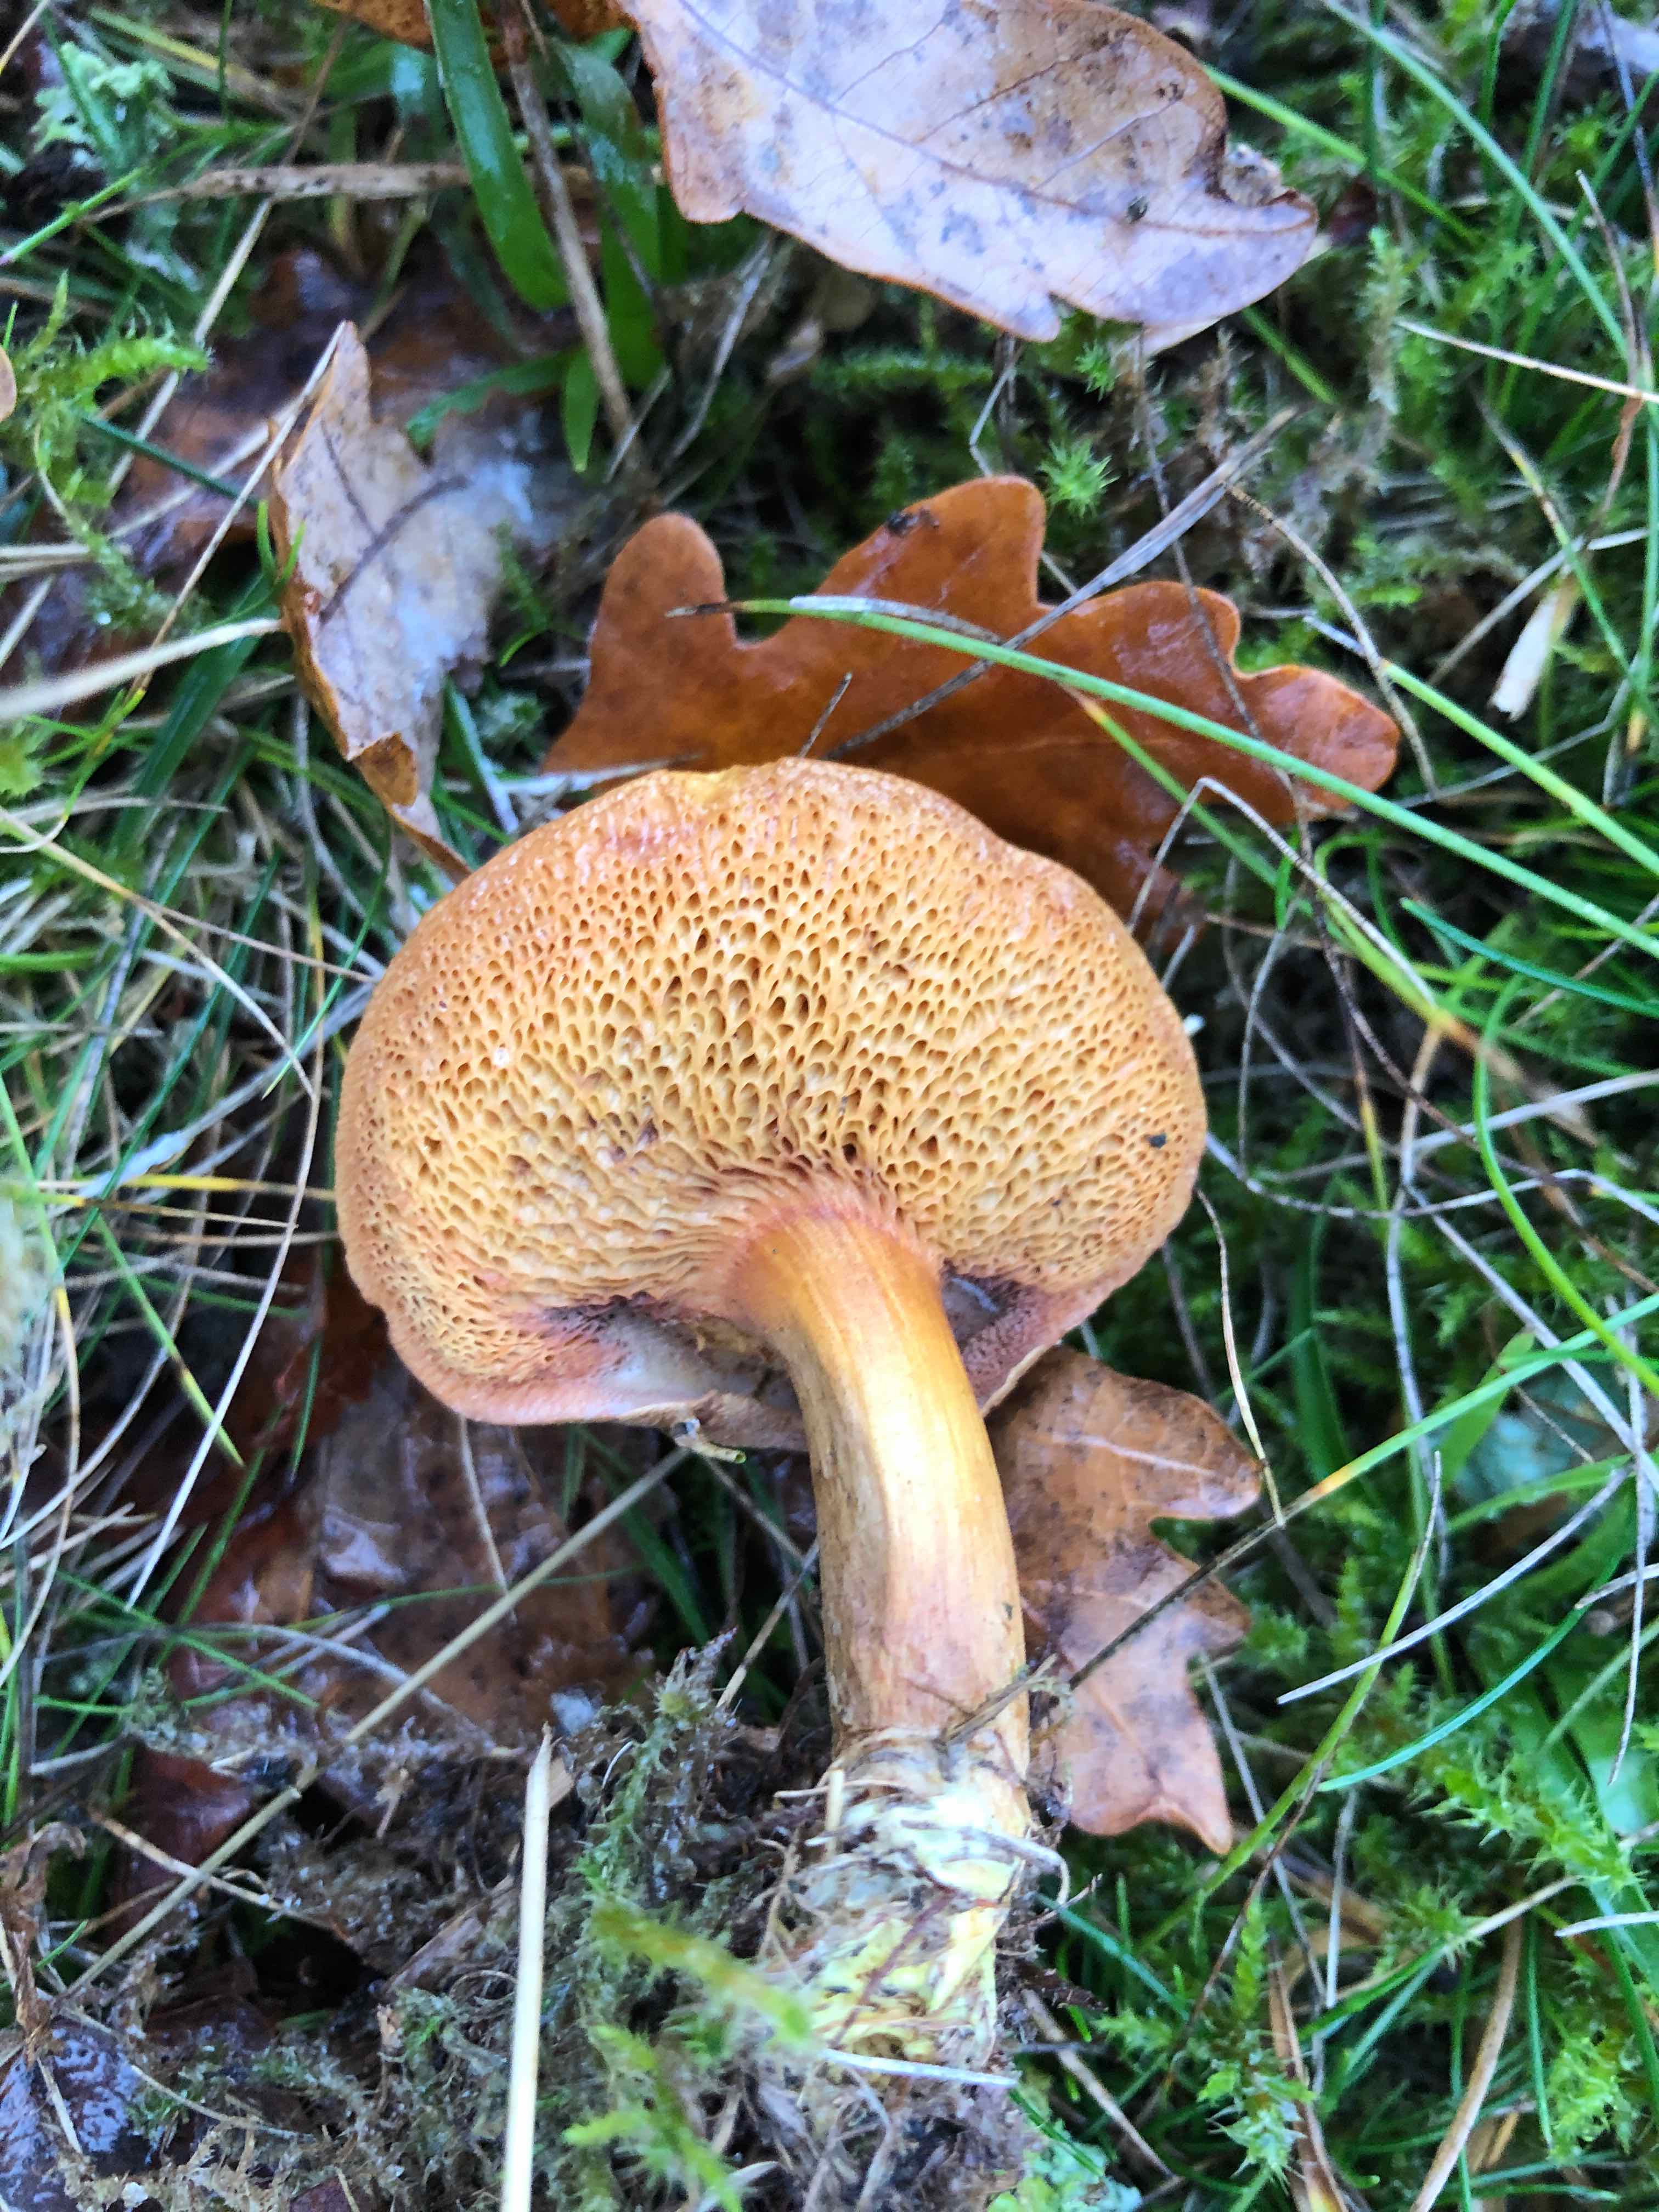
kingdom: Fungi
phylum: Basidiomycota
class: Agaricomycetes
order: Boletales
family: Boletaceae
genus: Chalciporus
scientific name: Chalciporus piperatus
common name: peberrørhat
